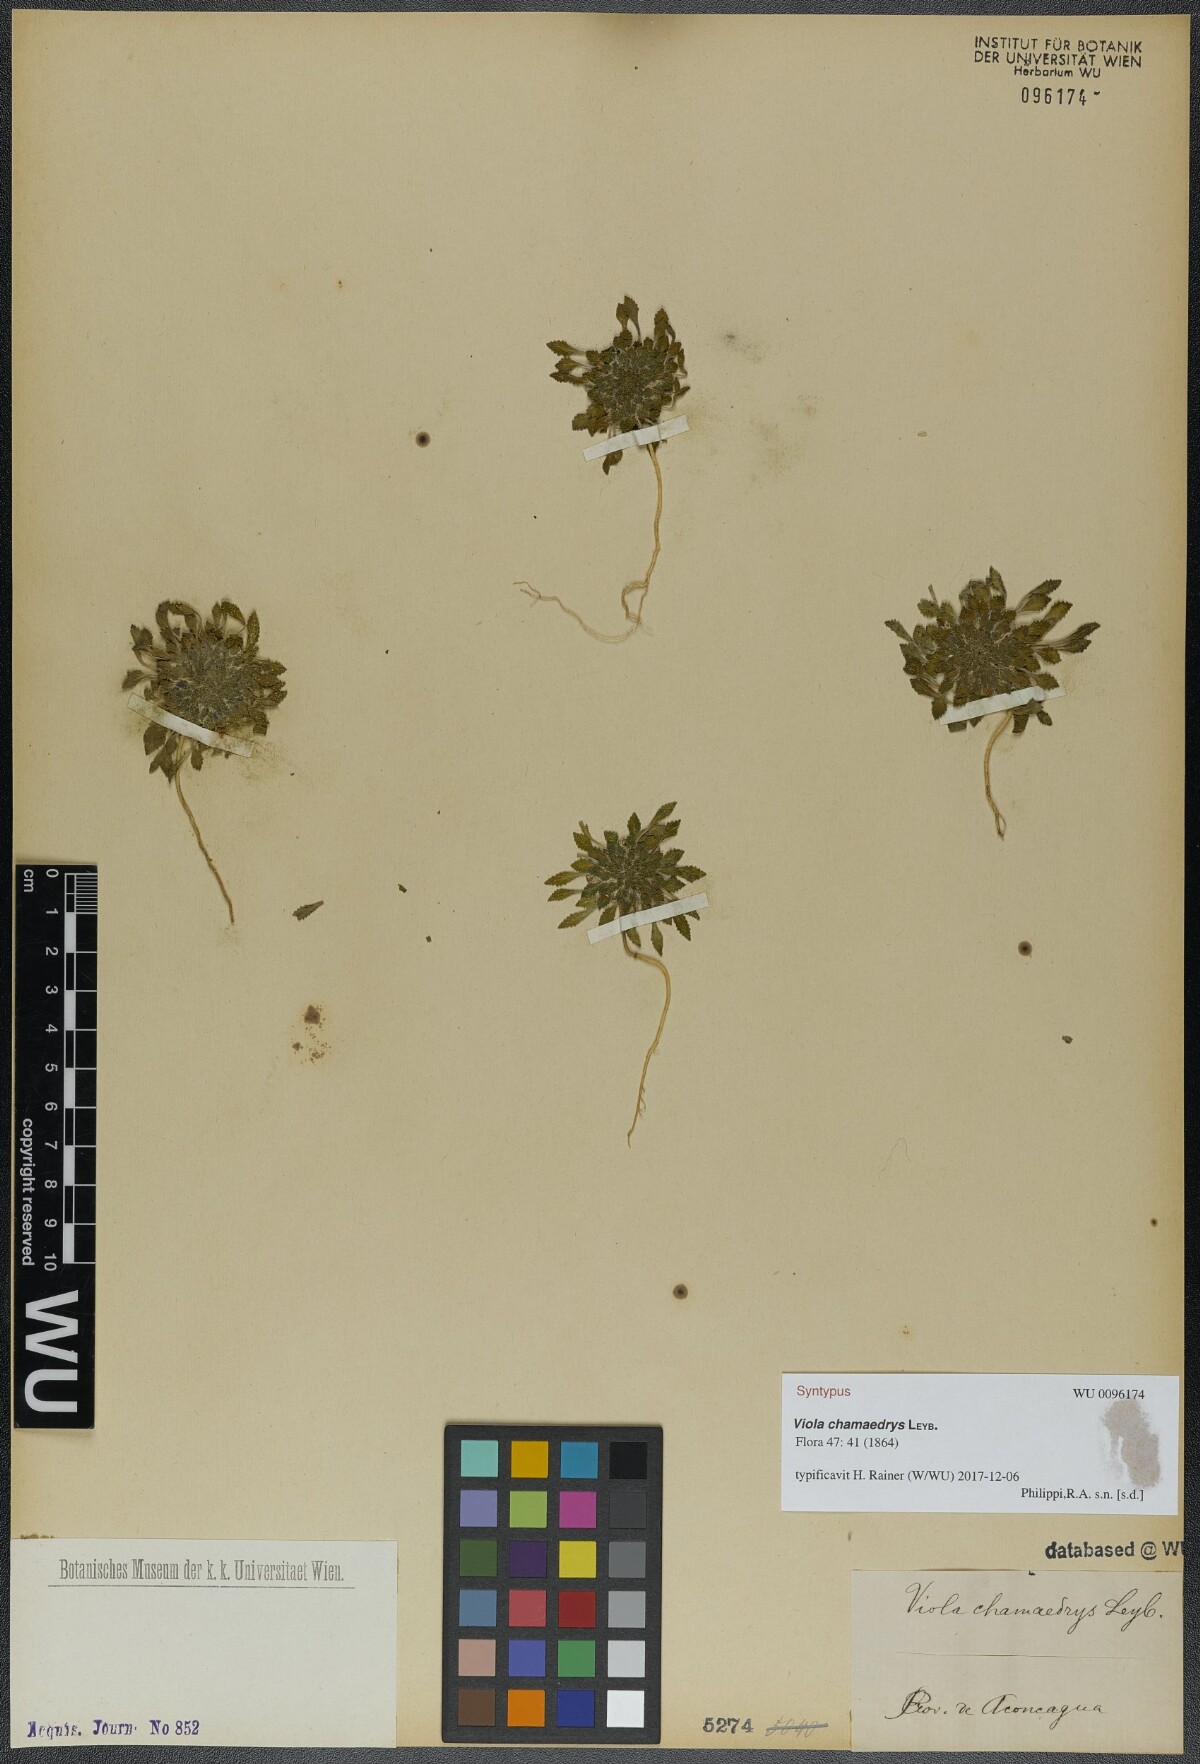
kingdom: Plantae
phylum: Tracheophyta
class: Magnoliopsida
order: Malpighiales
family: Violaceae
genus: Viola
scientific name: Viola chamaedrys
